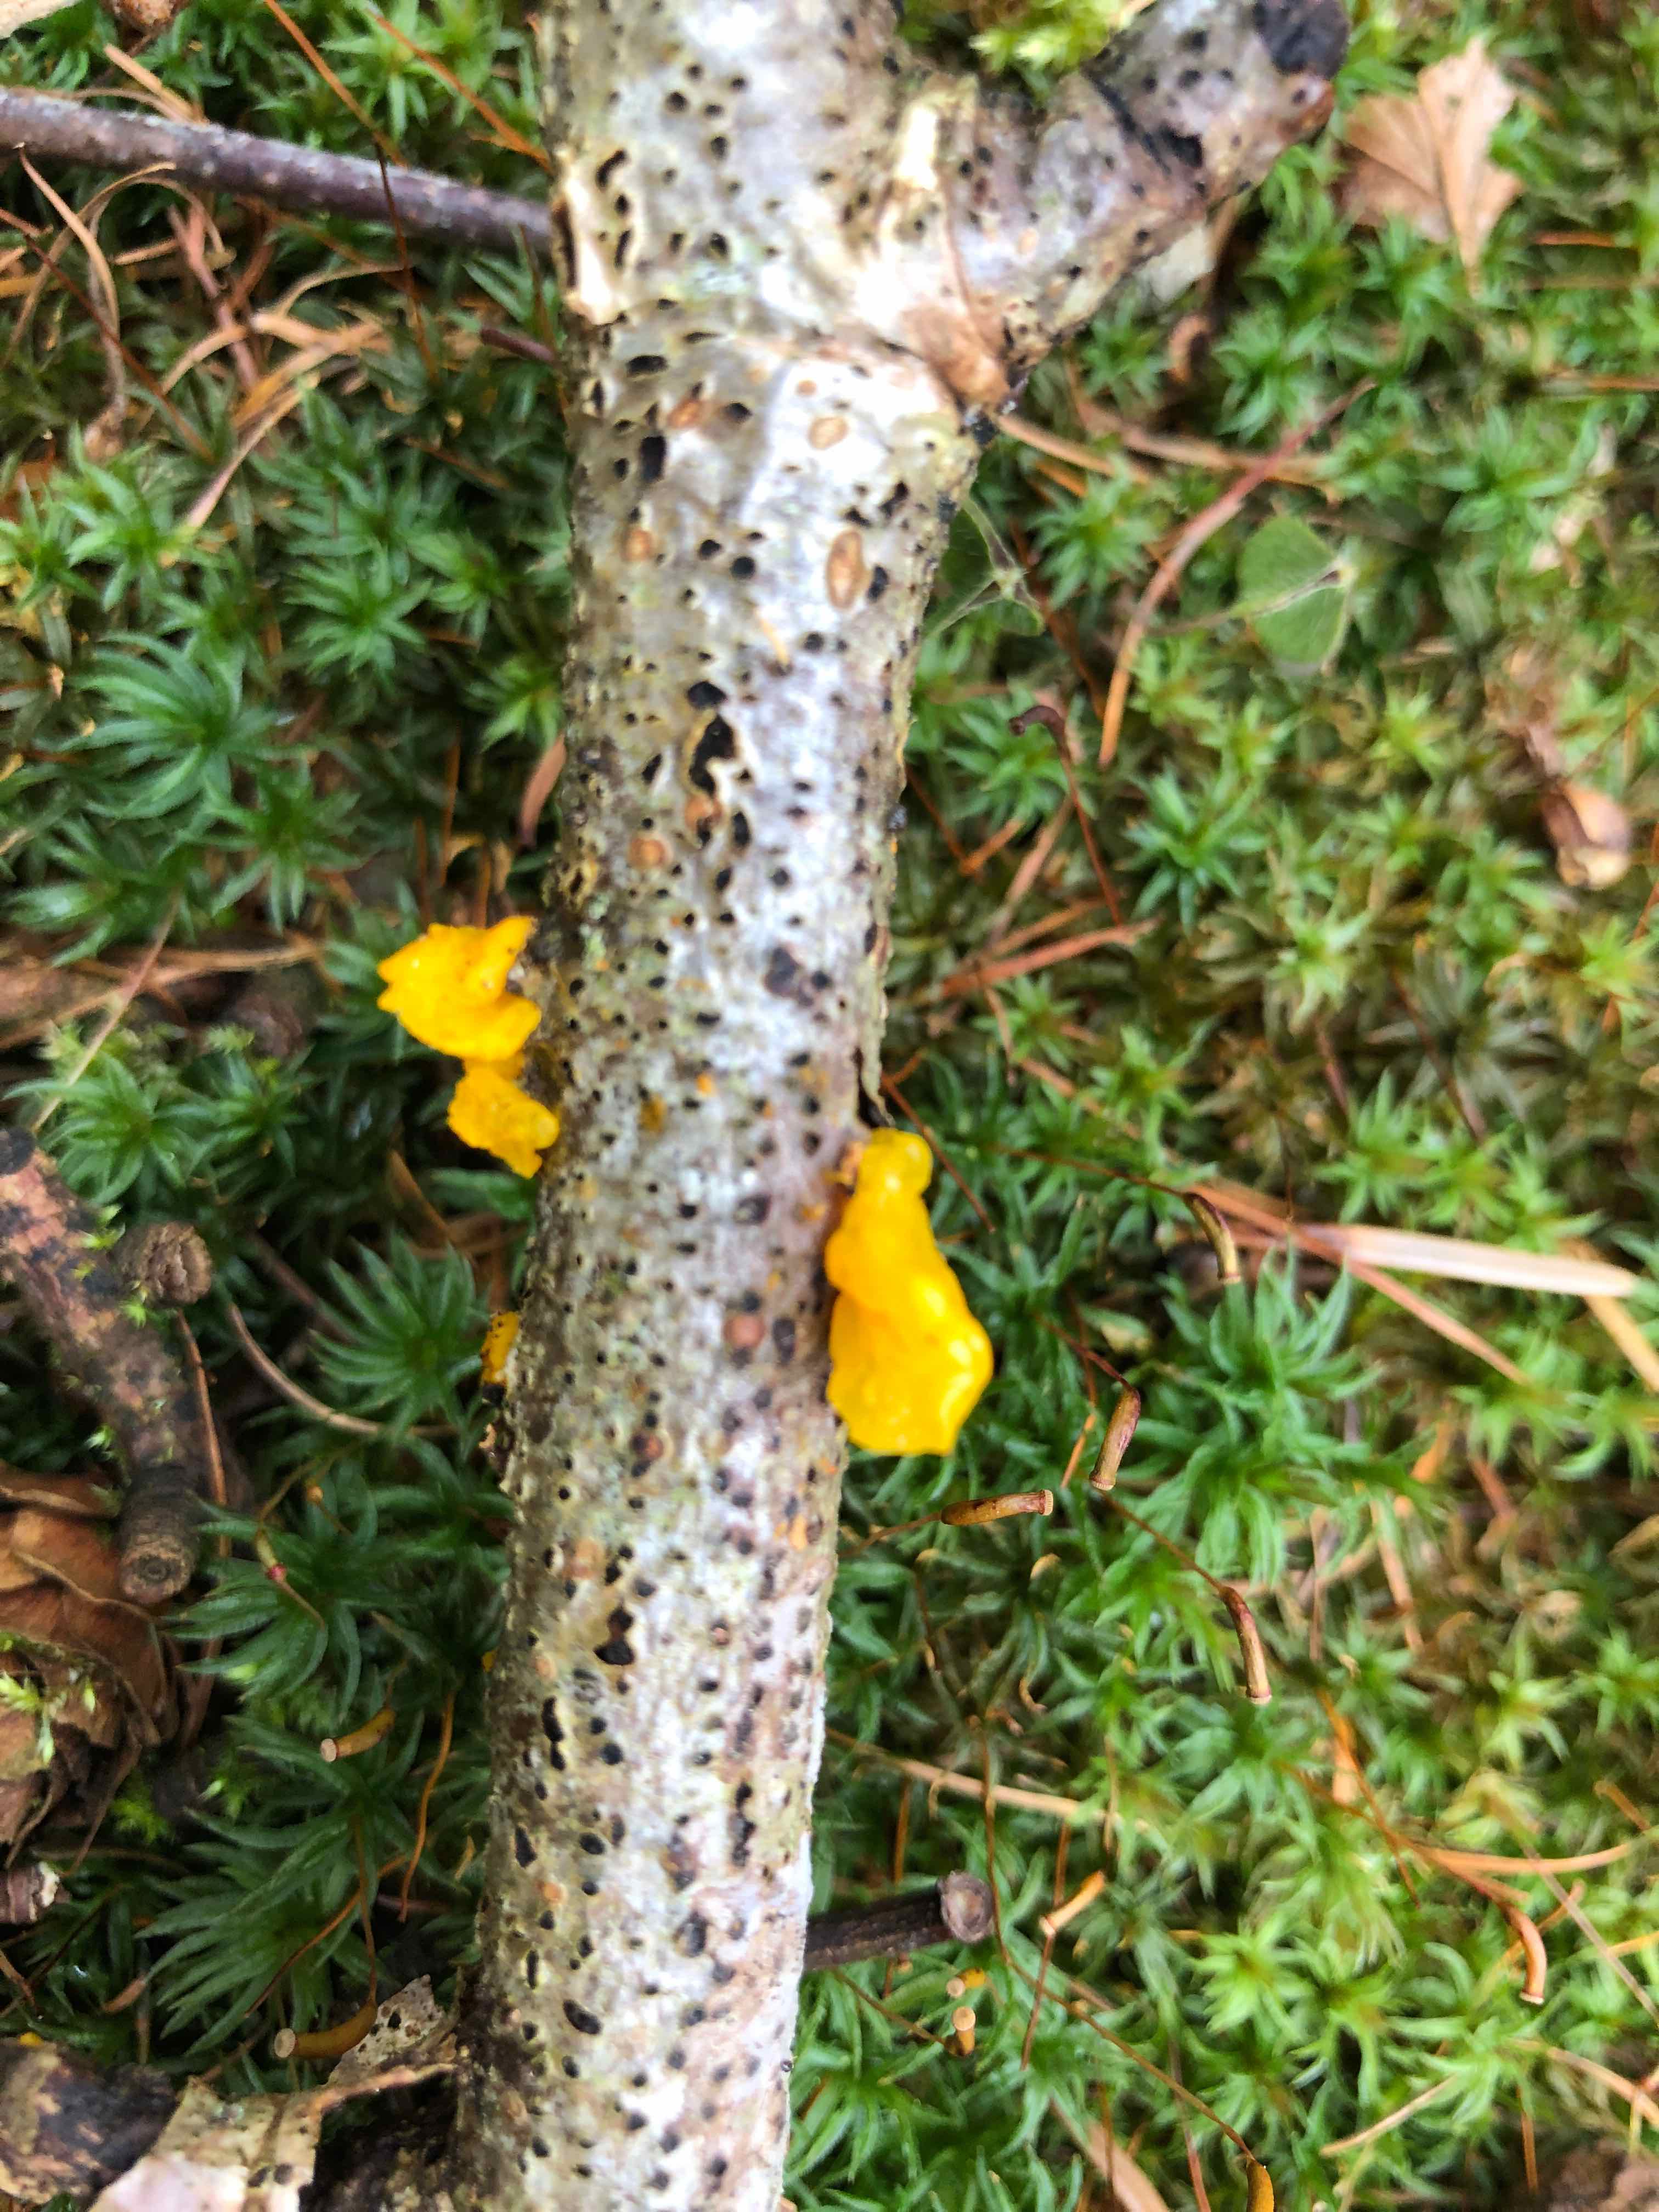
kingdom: Fungi
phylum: Basidiomycota
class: Tremellomycetes
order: Tremellales
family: Tremellaceae
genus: Tremella
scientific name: Tremella mesenterica
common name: gul bævresvamp
